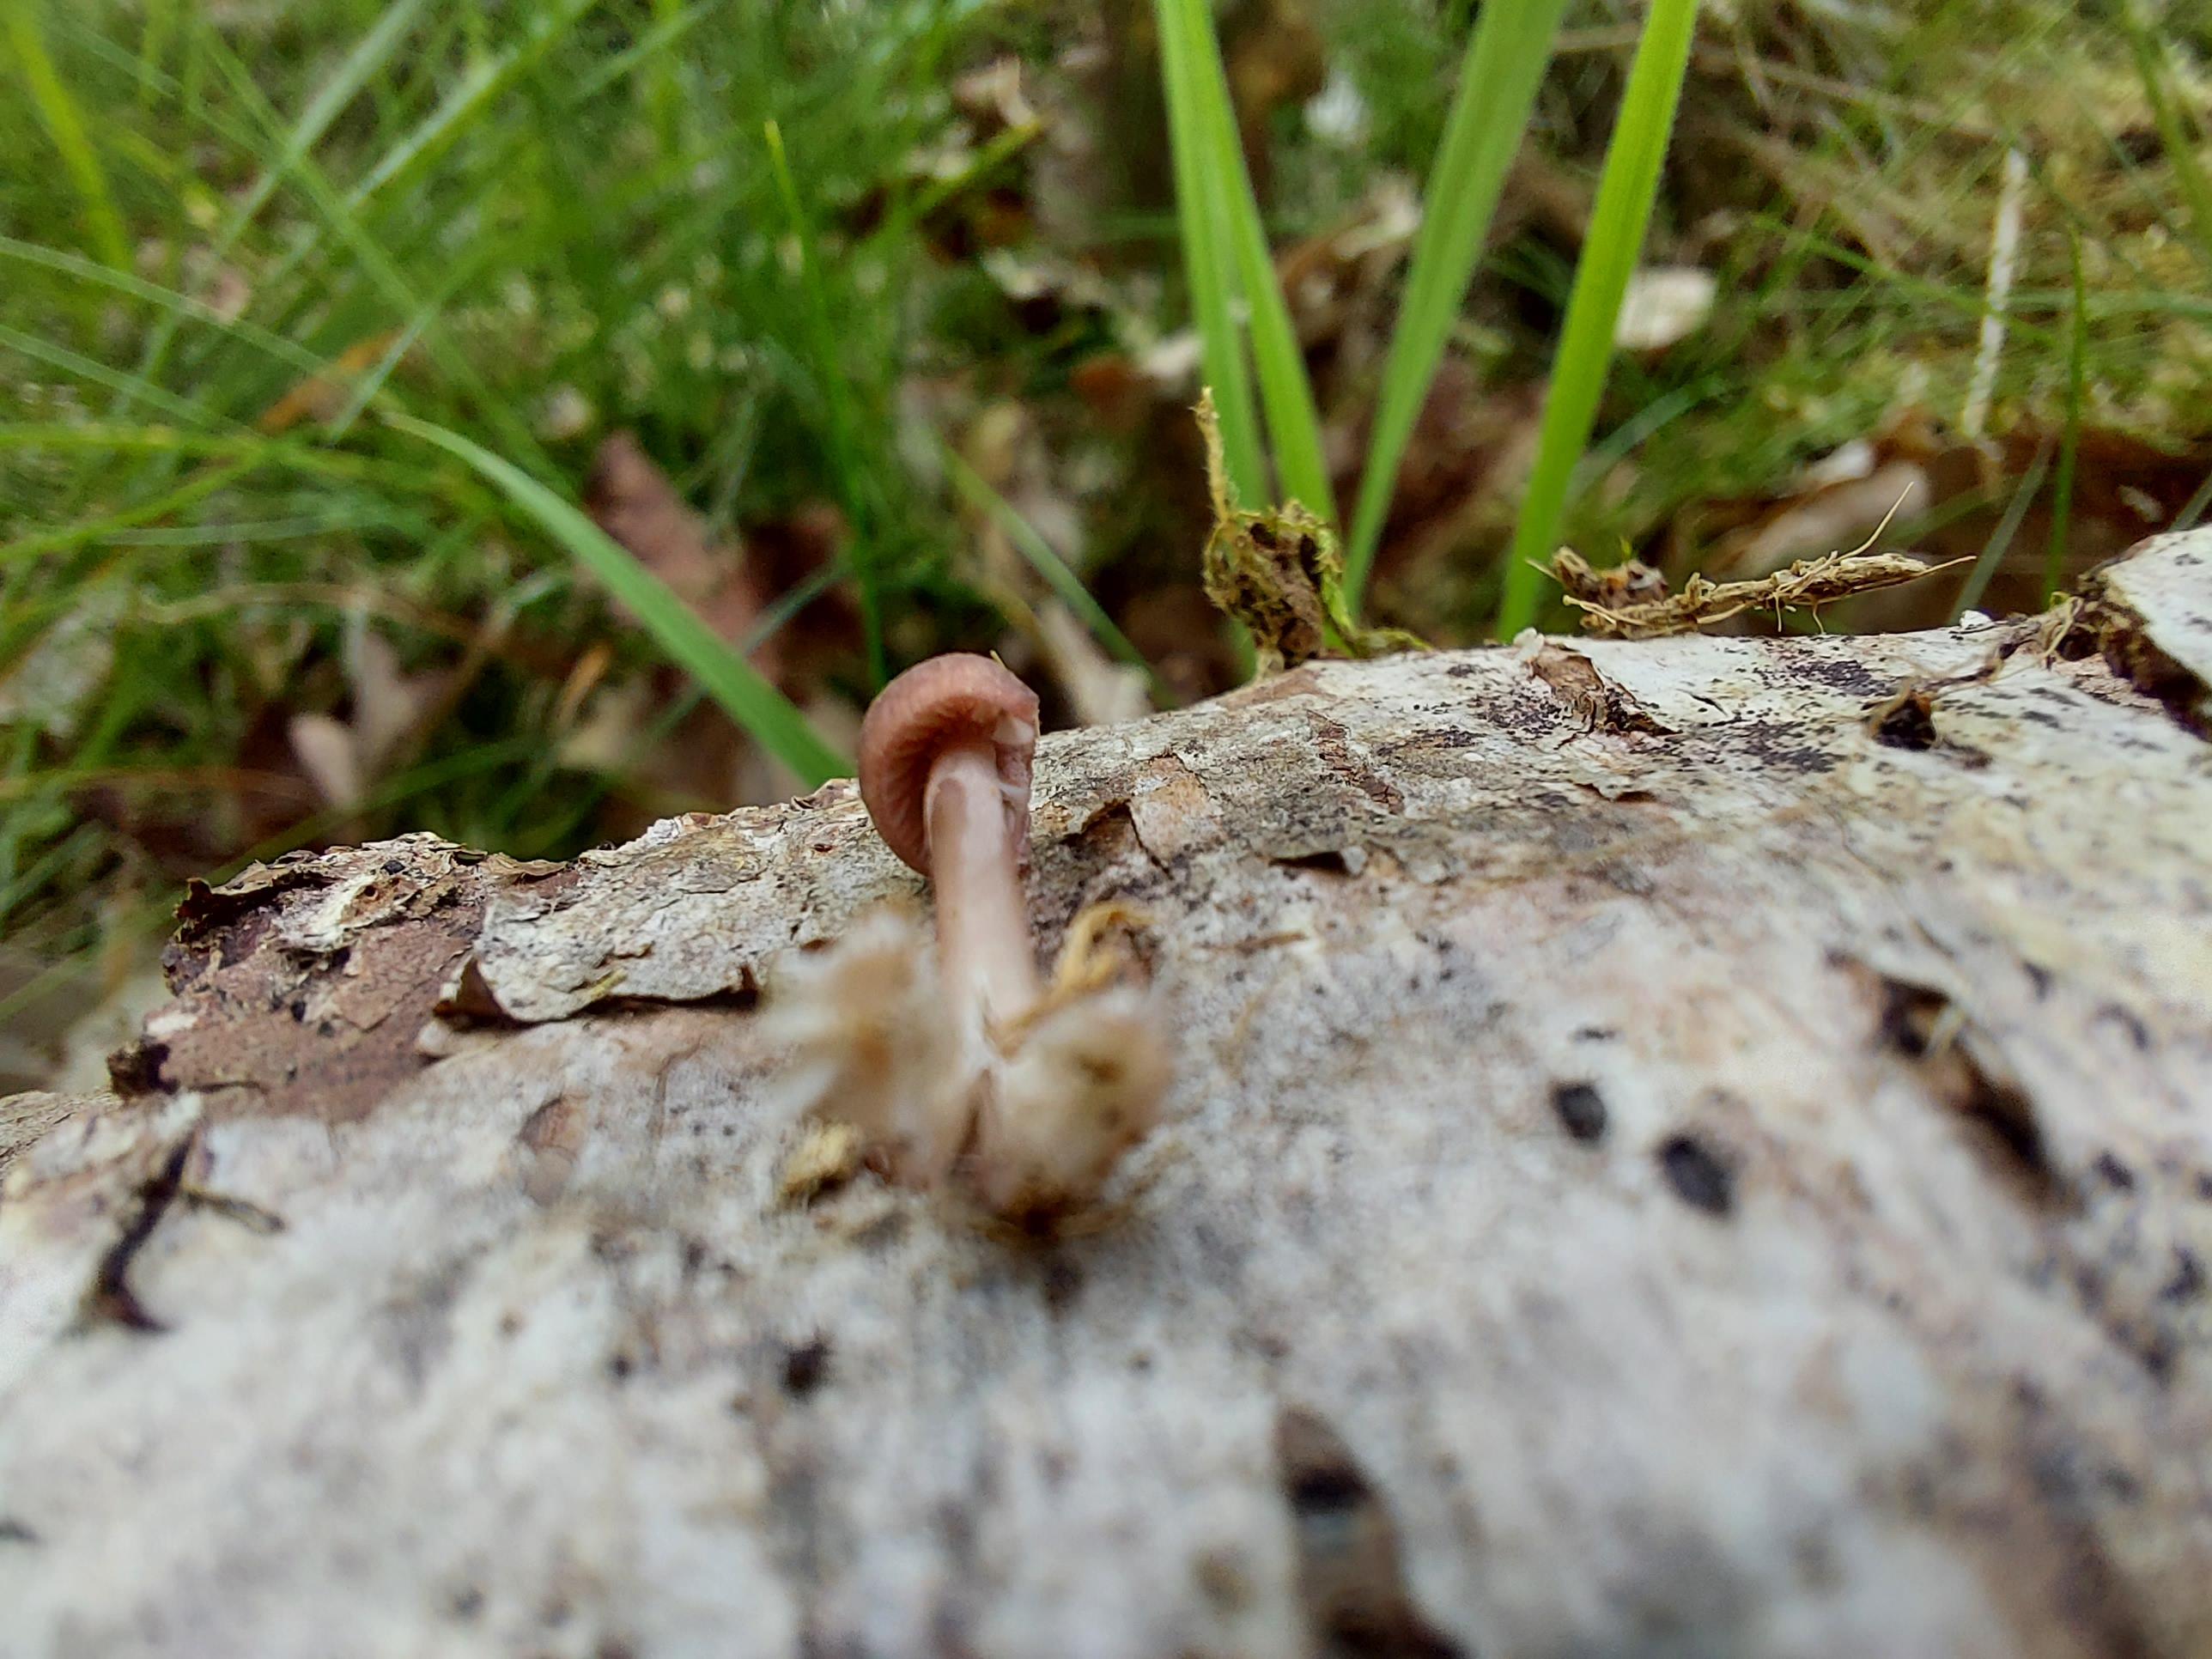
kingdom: Fungi
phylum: Basidiomycota
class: Agaricomycetes
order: Agaricales
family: Mycenaceae
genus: Mycena
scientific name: Mycena
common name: huesvamp
